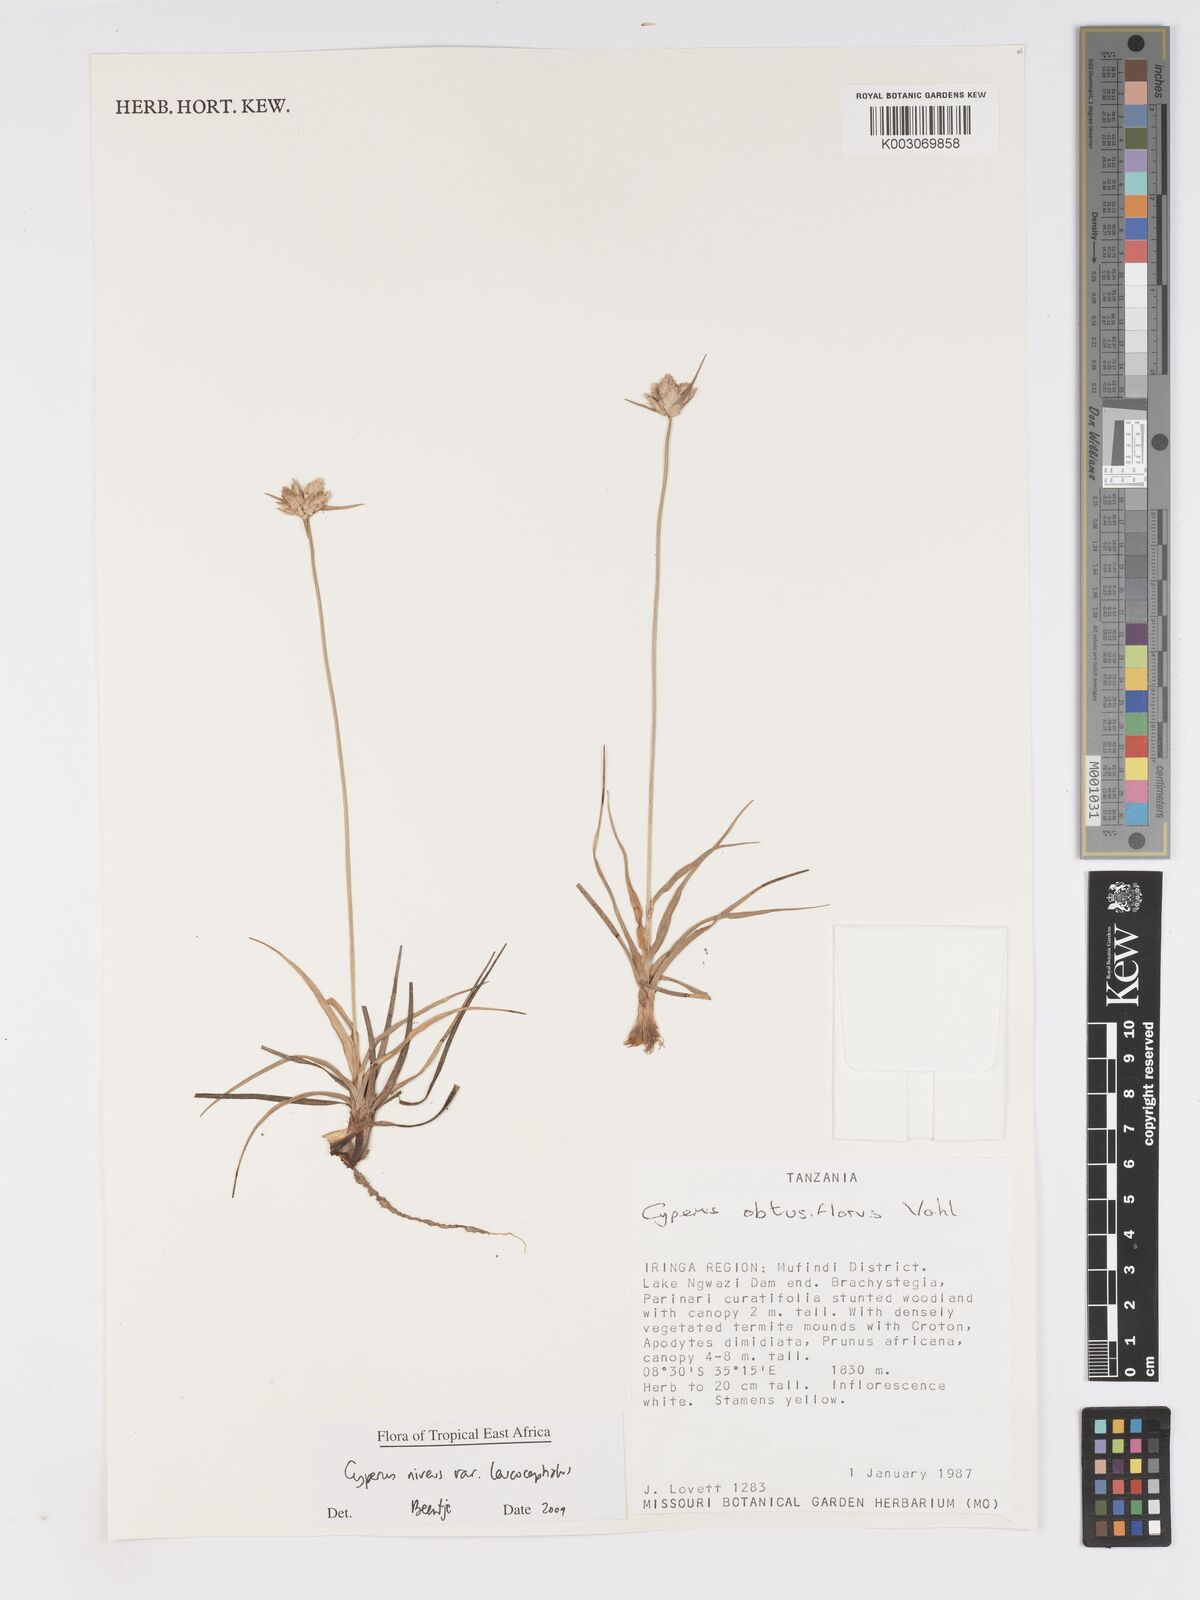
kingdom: Plantae
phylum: Tracheophyta
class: Liliopsida
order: Poales
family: Cyperaceae
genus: Cyperus
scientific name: Cyperus niveus
